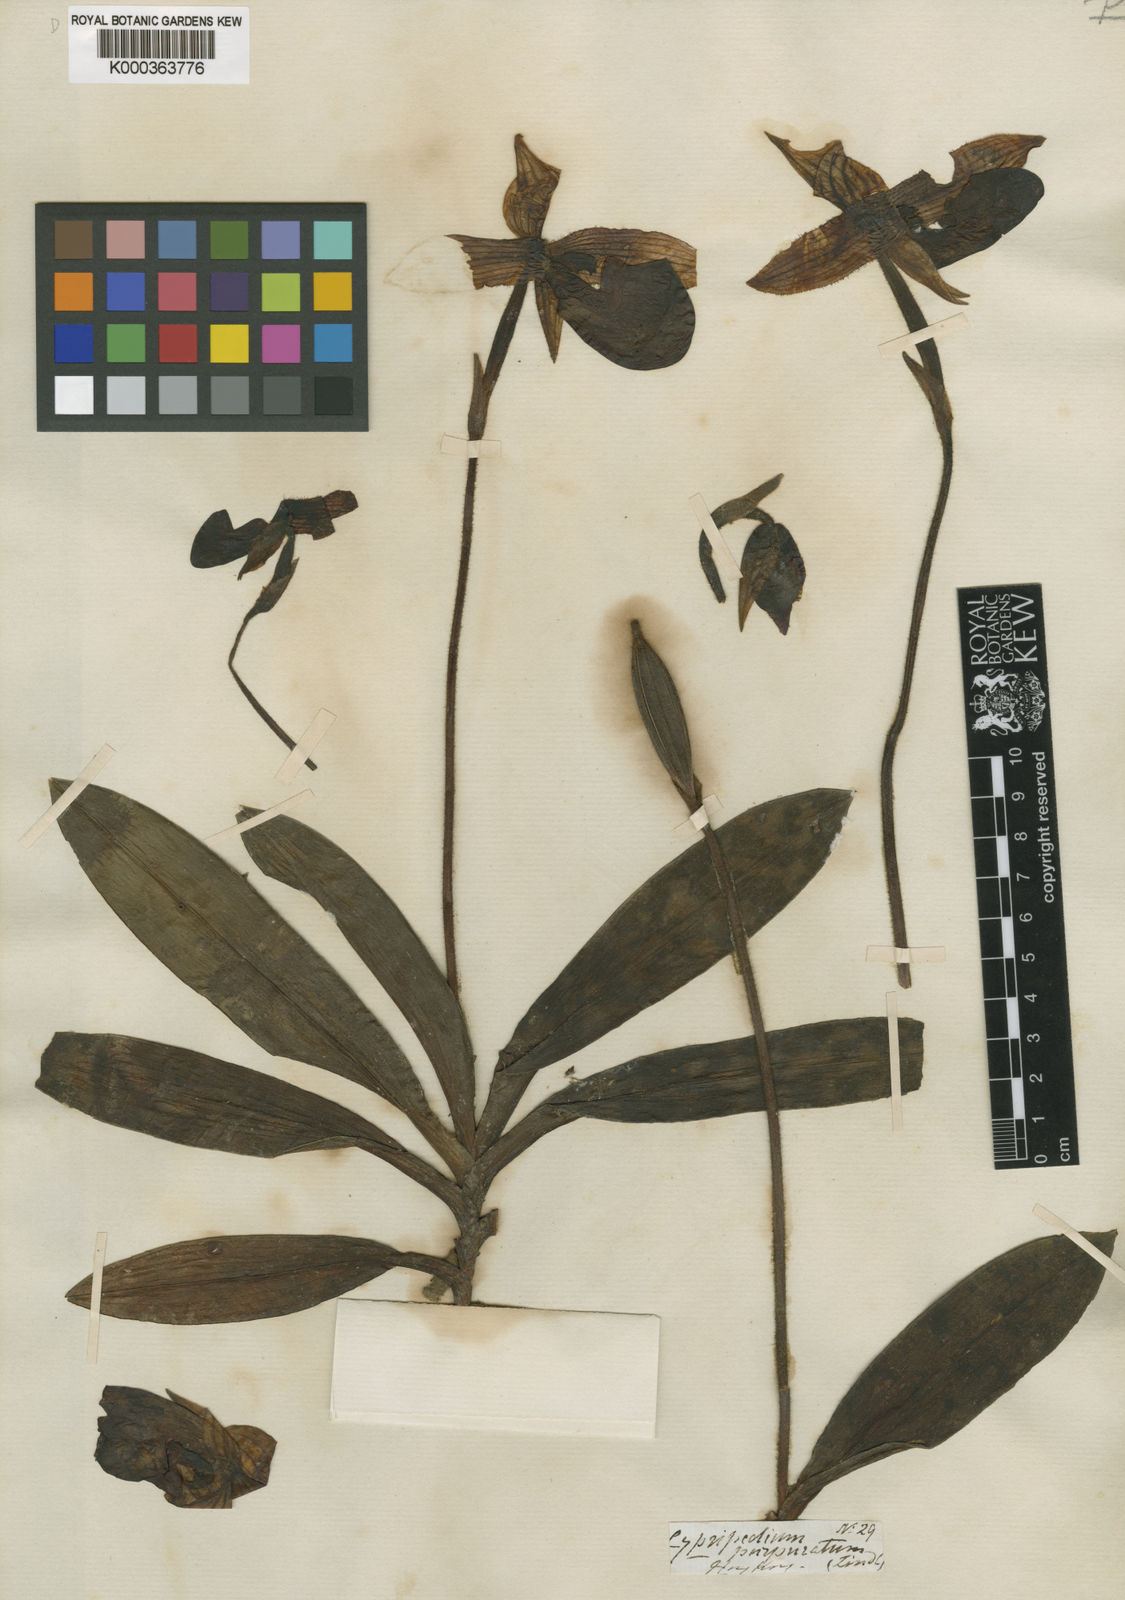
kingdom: Plantae
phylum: Tracheophyta
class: Liliopsida
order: Asparagales
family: Orchidaceae
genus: Paphiopedilum
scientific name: Paphiopedilum purpuratum
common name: Purple paphiopedilum
